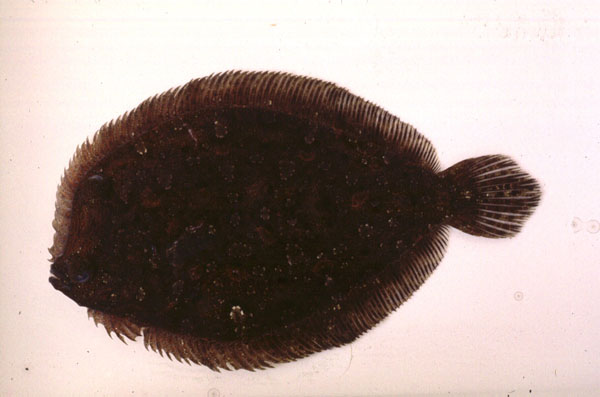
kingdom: Animalia
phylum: Chordata
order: Pleuronectiformes
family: Bothidae
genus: Bothus
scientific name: Bothus podas
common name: Wide-eyed flounder
